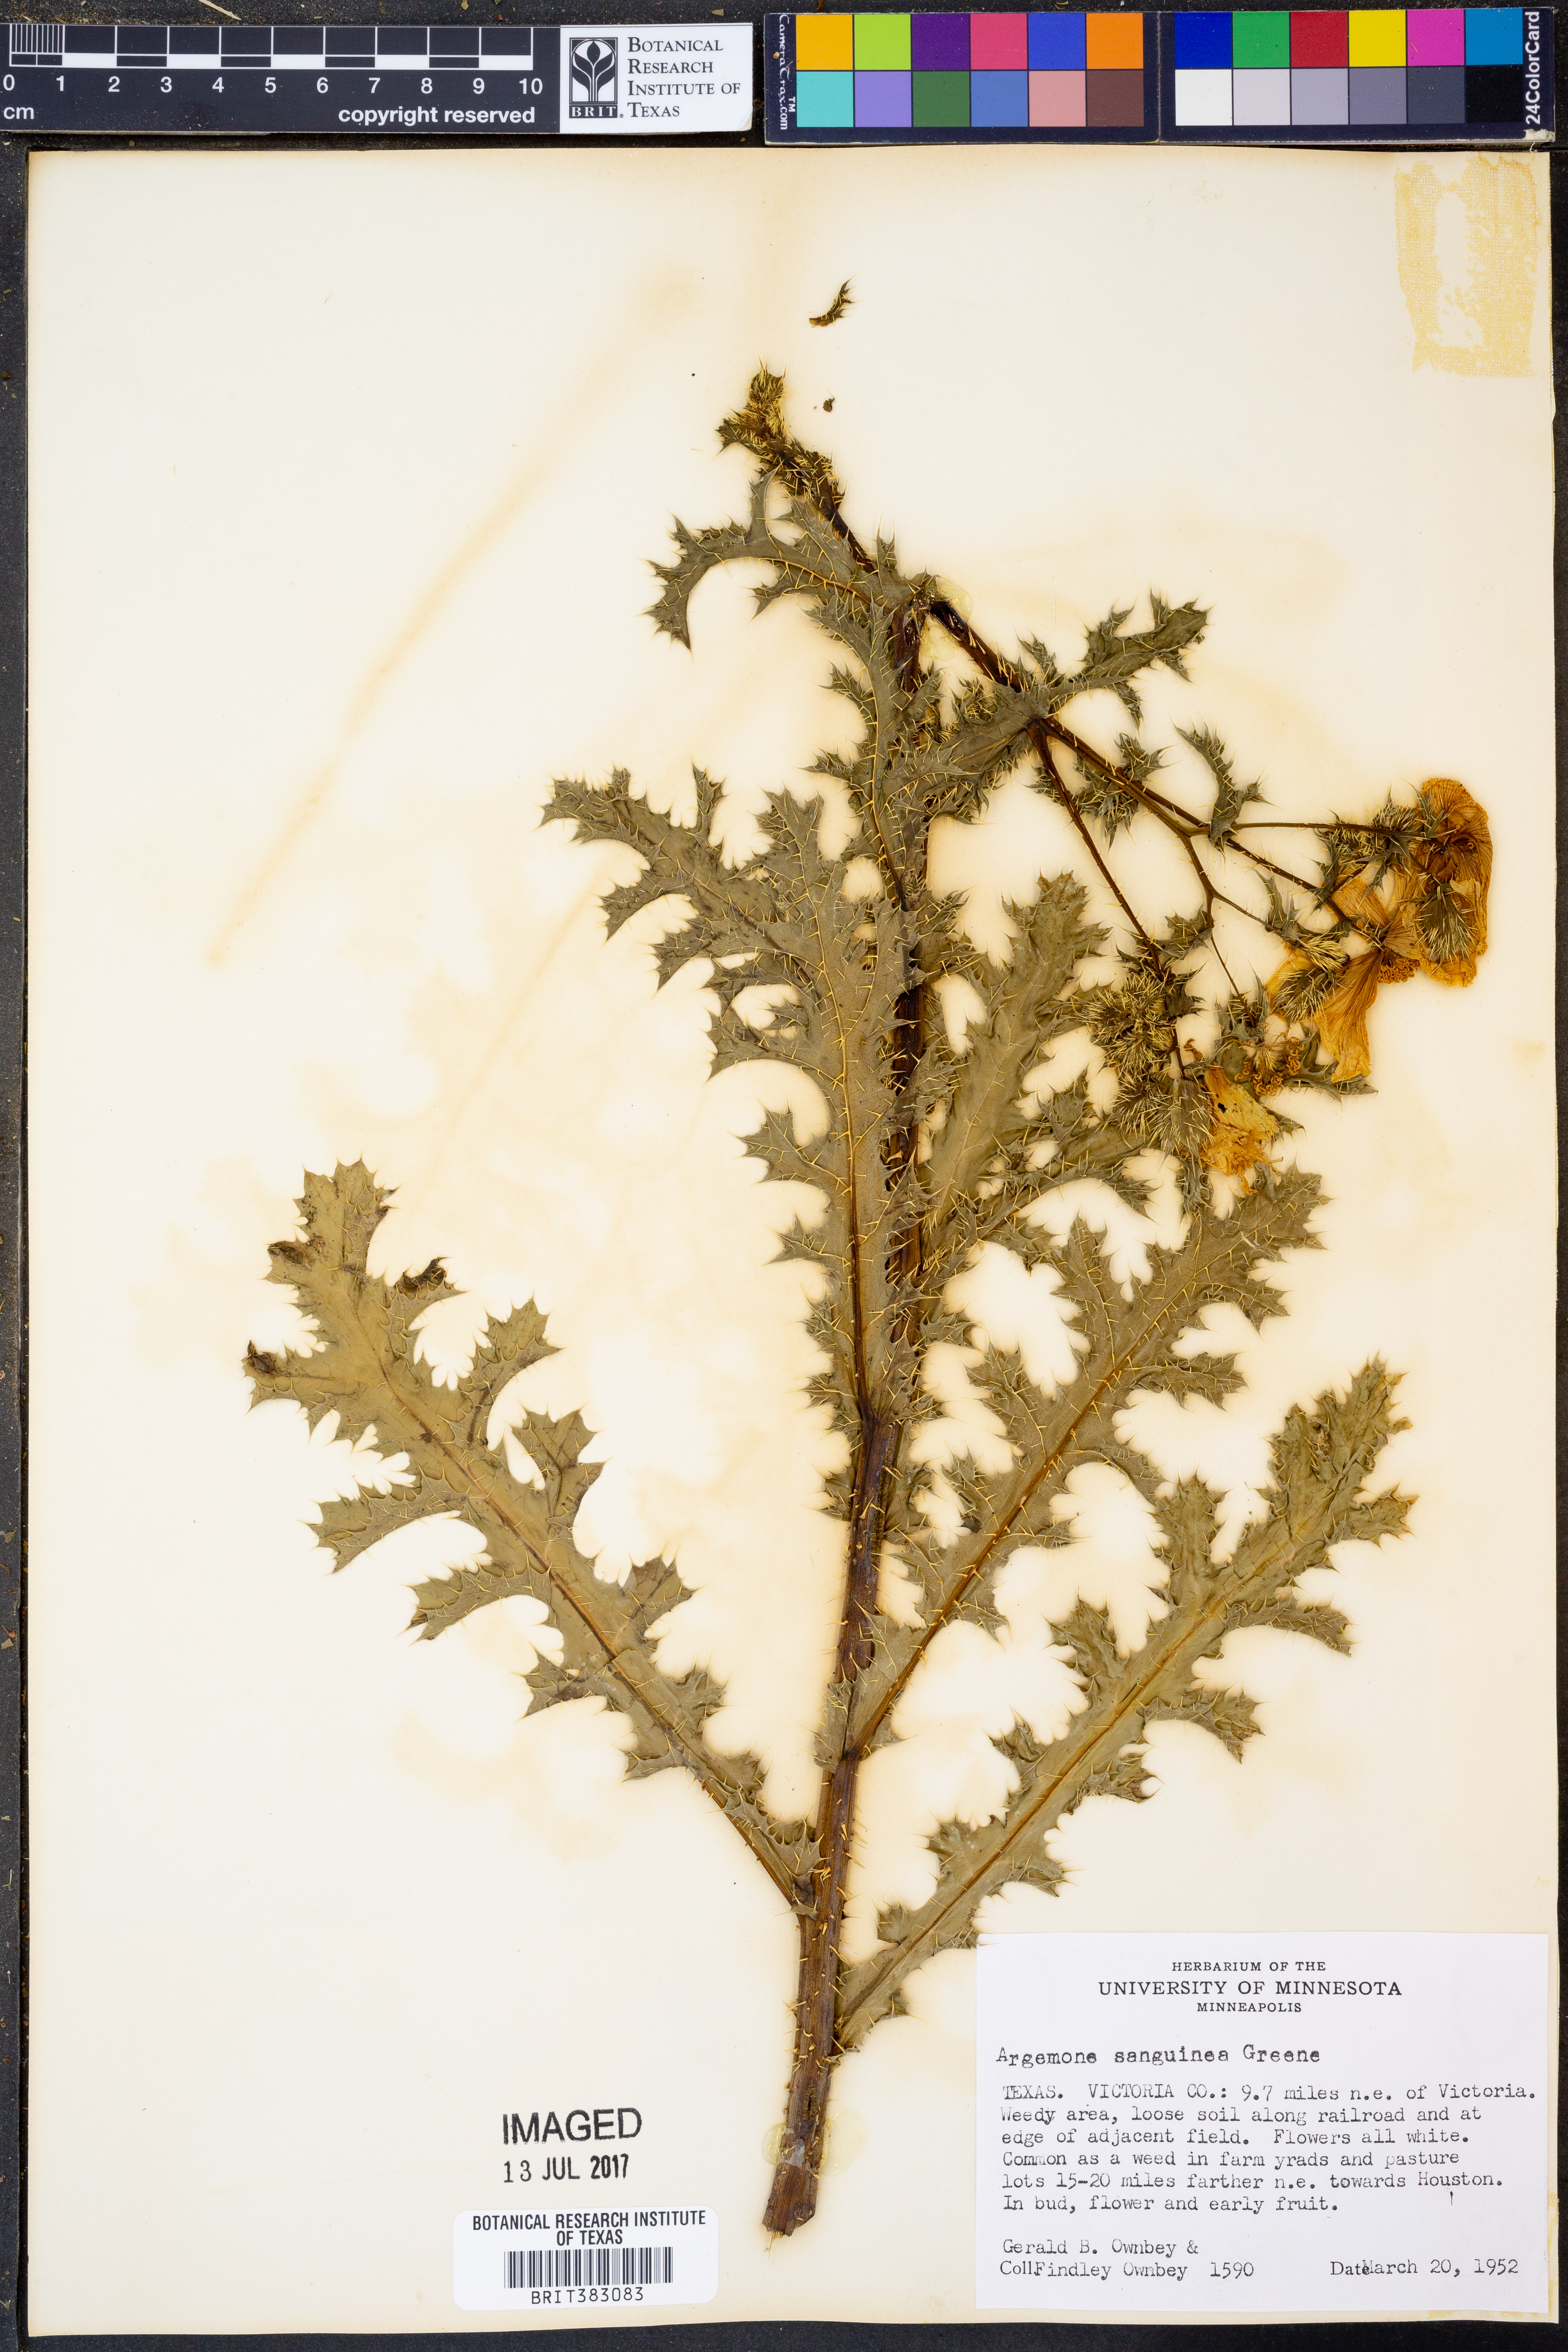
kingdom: Plantae
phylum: Tracheophyta
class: Magnoliopsida
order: Ranunculales
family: Papaveraceae
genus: Argemone
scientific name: Argemone sanguinea
